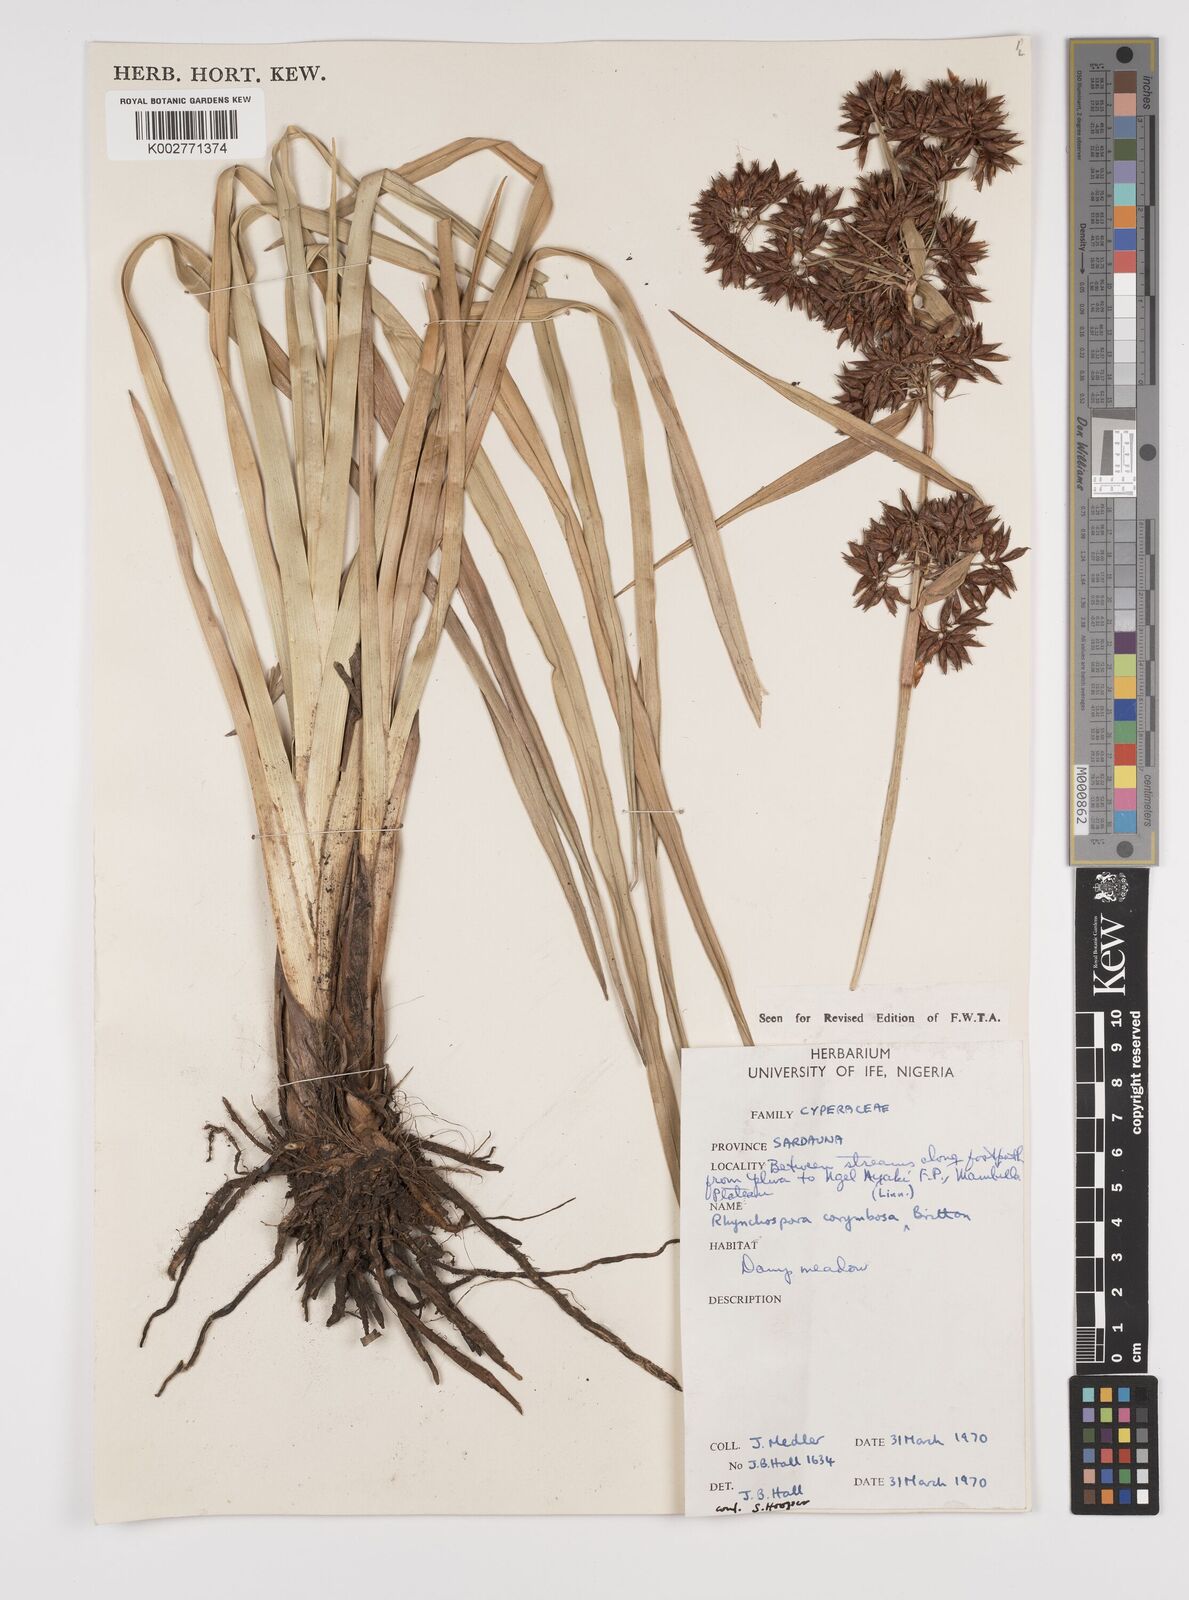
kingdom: Plantae
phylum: Tracheophyta
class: Liliopsida
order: Poales
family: Cyperaceae
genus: Rhynchospora
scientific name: Rhynchospora corymbosa
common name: Golden beak sedge
